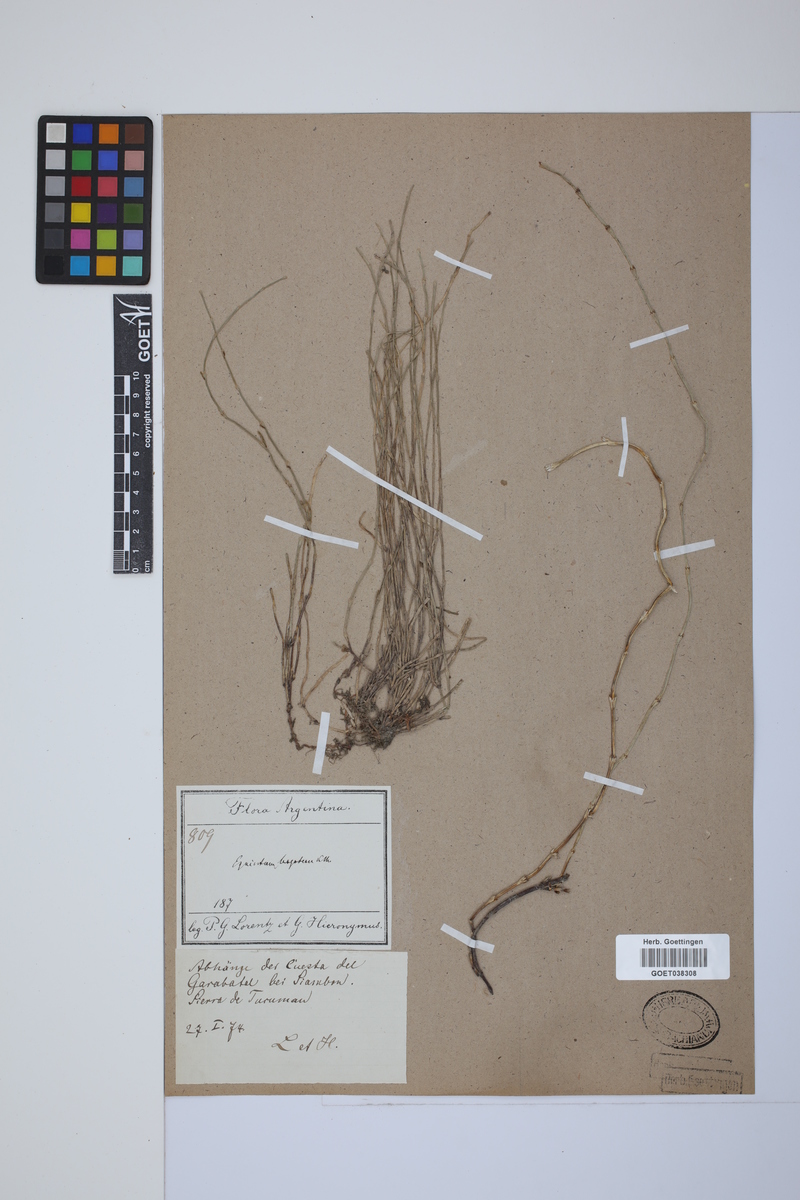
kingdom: Plantae
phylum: Tracheophyta
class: Polypodiopsida
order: Equisetales
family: Equisetaceae
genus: Equisetum
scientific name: Equisetum bogotense
